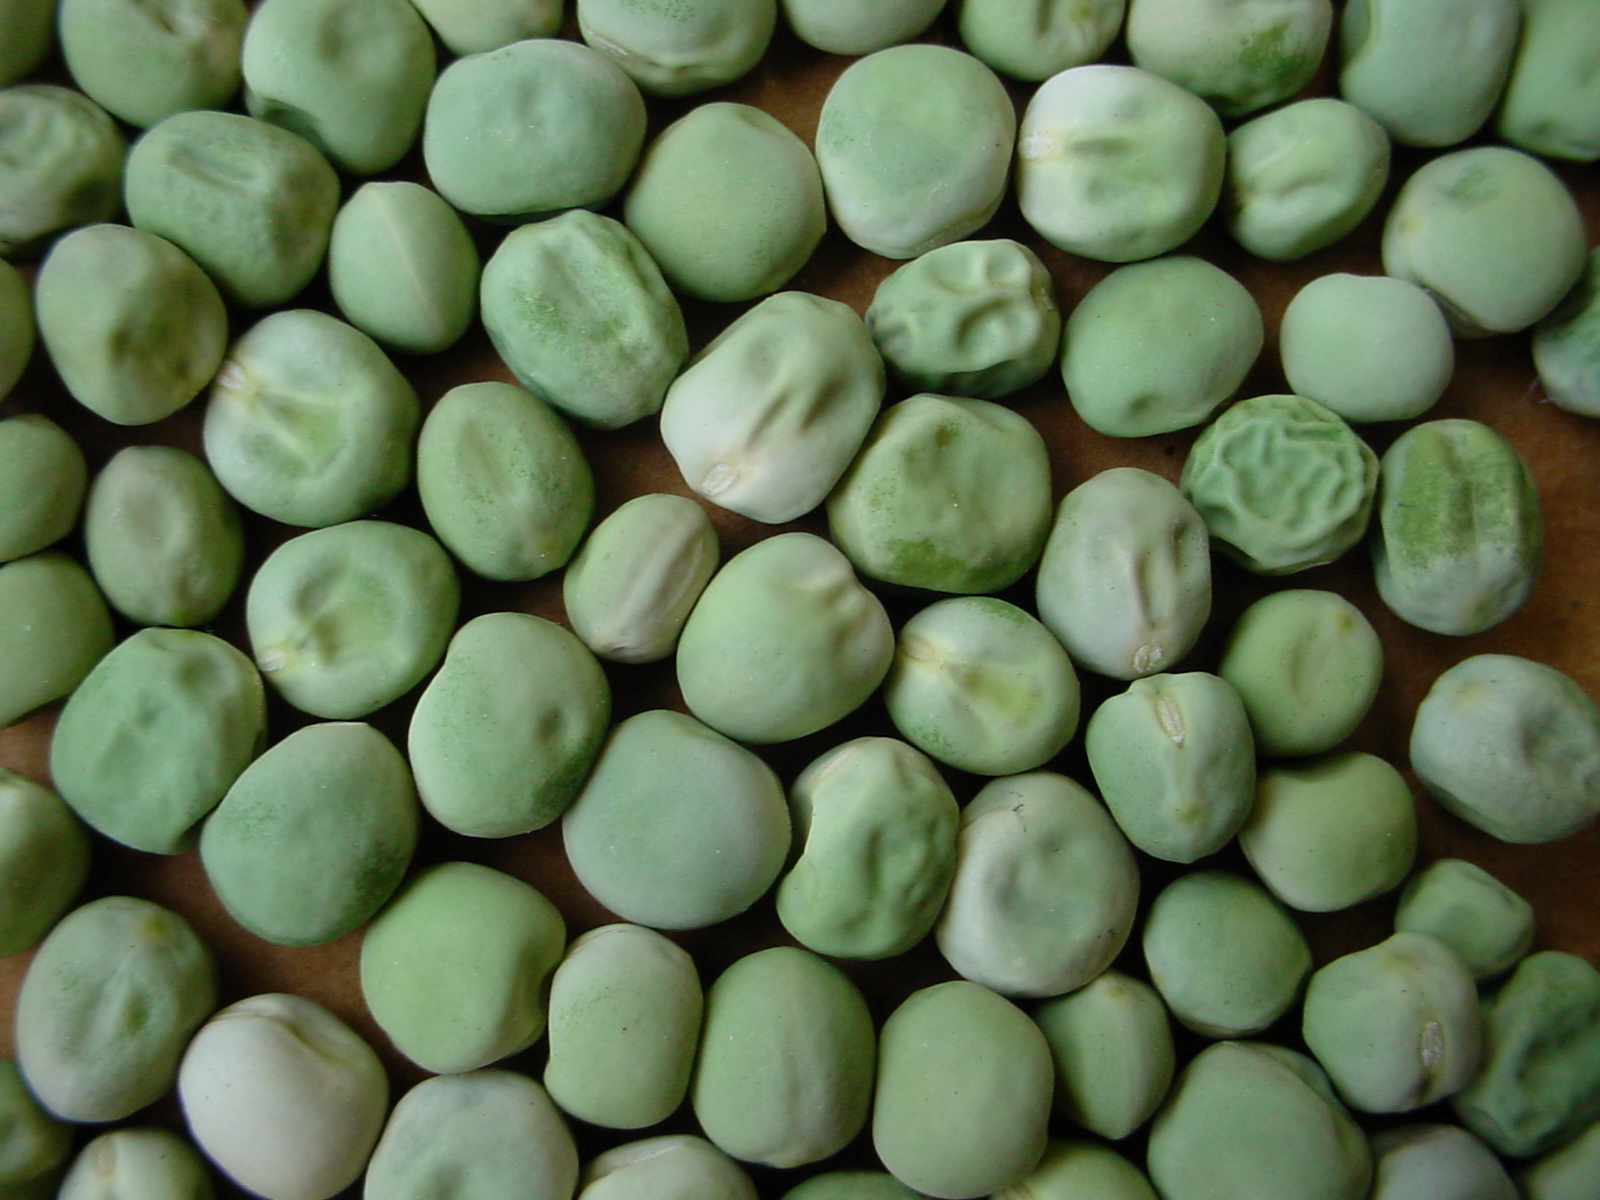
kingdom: Plantae
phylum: Tracheophyta
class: Magnoliopsida
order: Fabales
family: Fabaceae
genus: Lathyrus
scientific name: Lathyrus oleraceus
